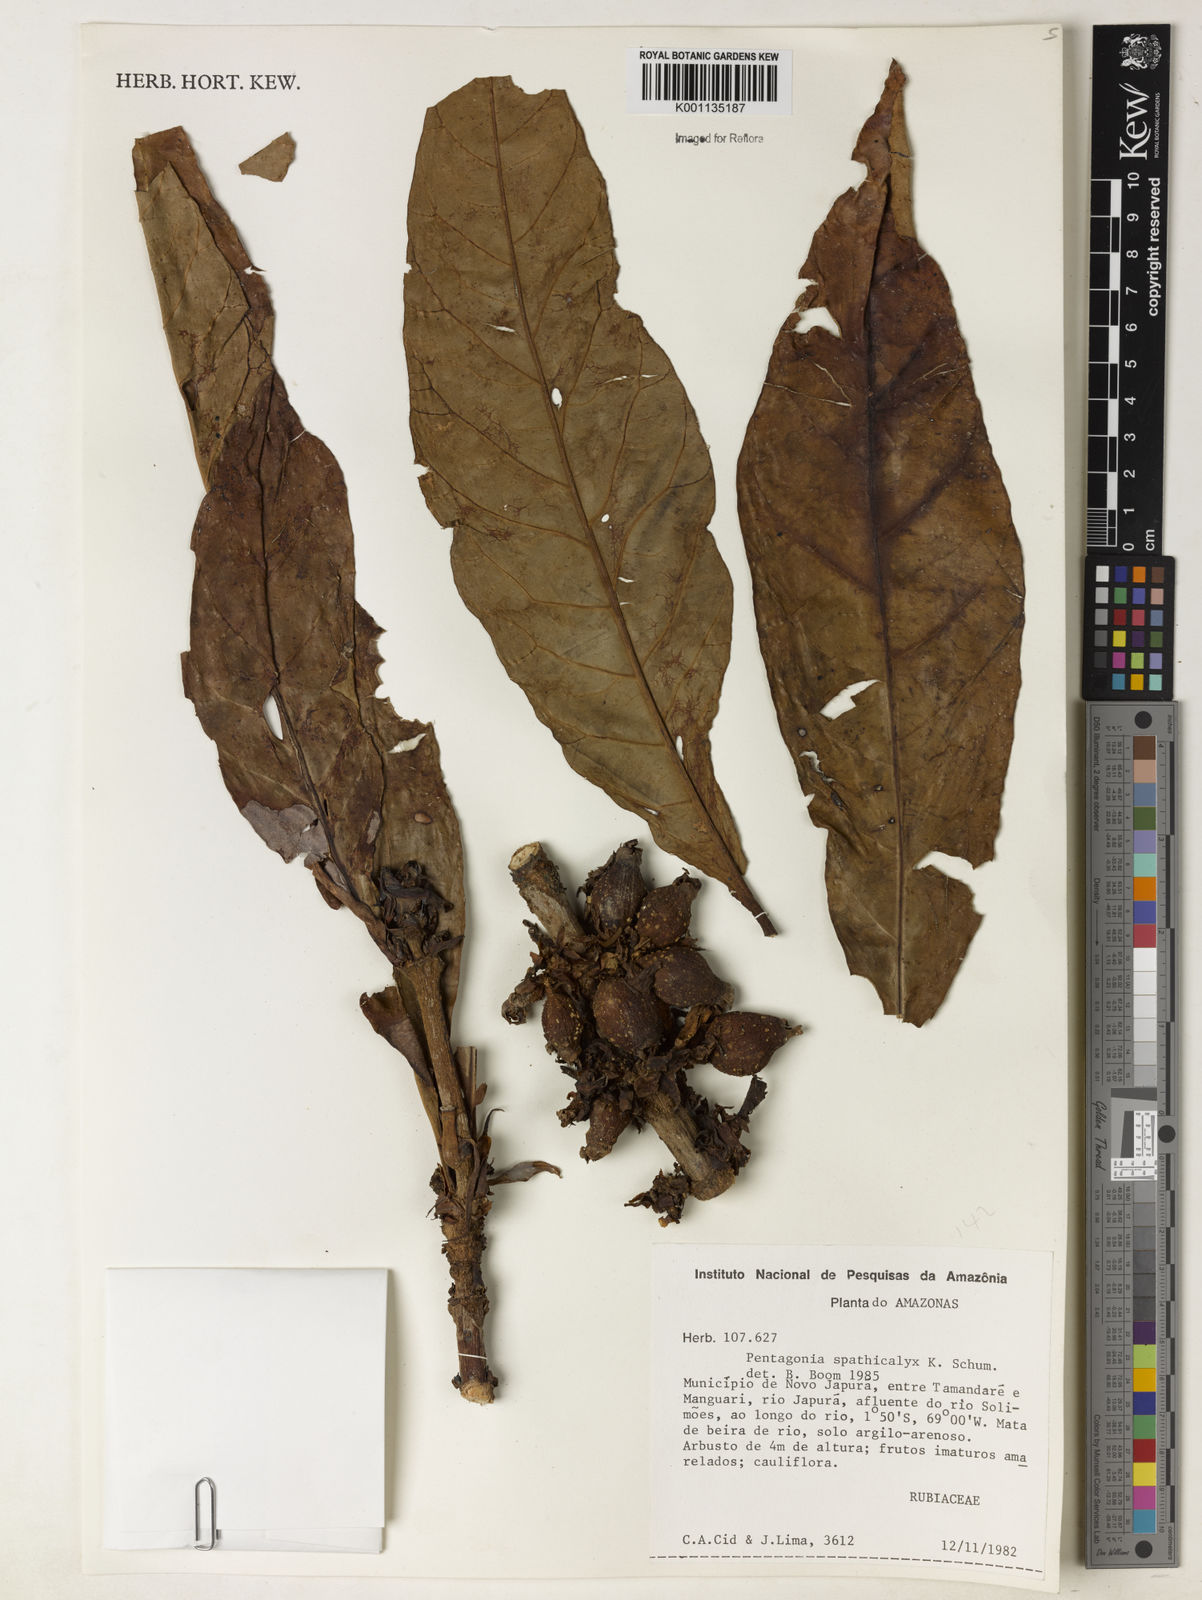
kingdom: Plantae
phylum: Tracheophyta
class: Magnoliopsida
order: Gentianales
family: Rubiaceae
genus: Pentagonia
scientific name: Pentagonia spathicalyx
